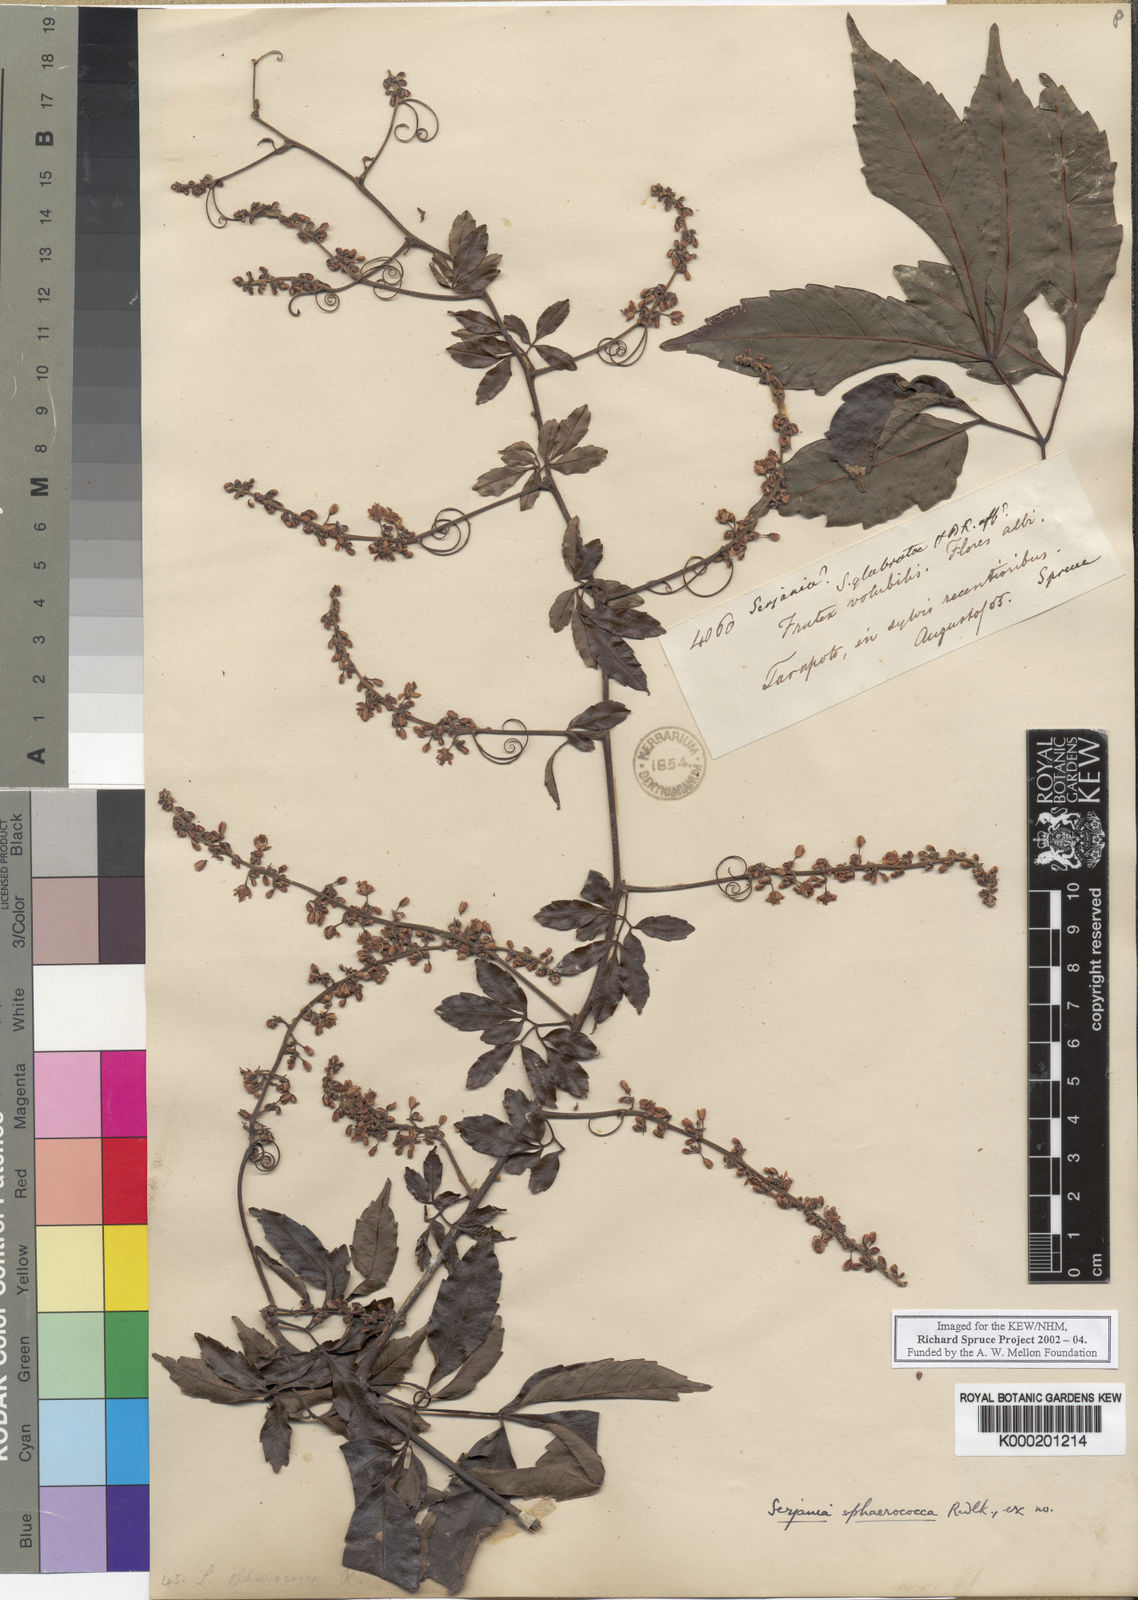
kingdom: Plantae
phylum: Tracheophyta
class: Magnoliopsida
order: Sapindales
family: Sapindaceae
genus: Serjania
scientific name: Serjania sphaerococca
